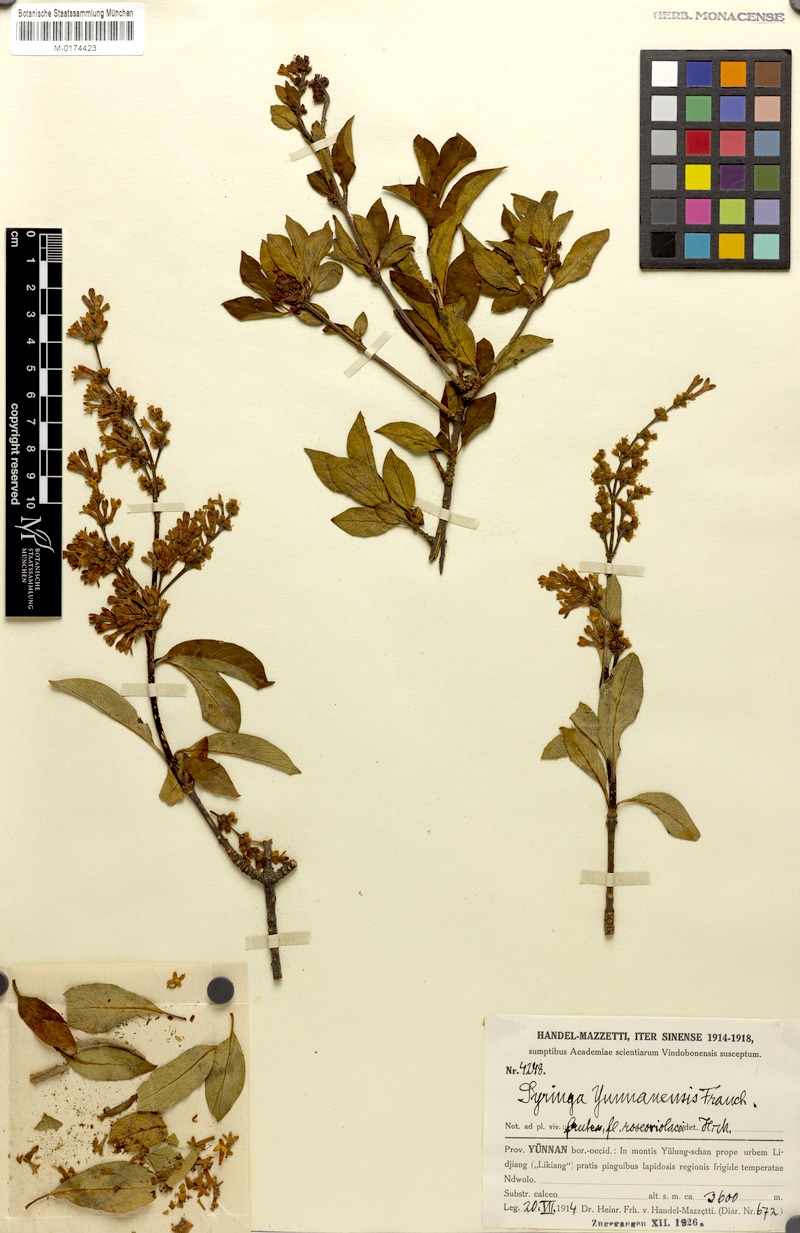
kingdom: Plantae
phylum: Tracheophyta
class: Magnoliopsida
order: Lamiales
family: Oleaceae
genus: Syringa
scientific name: Syringa tomentella
